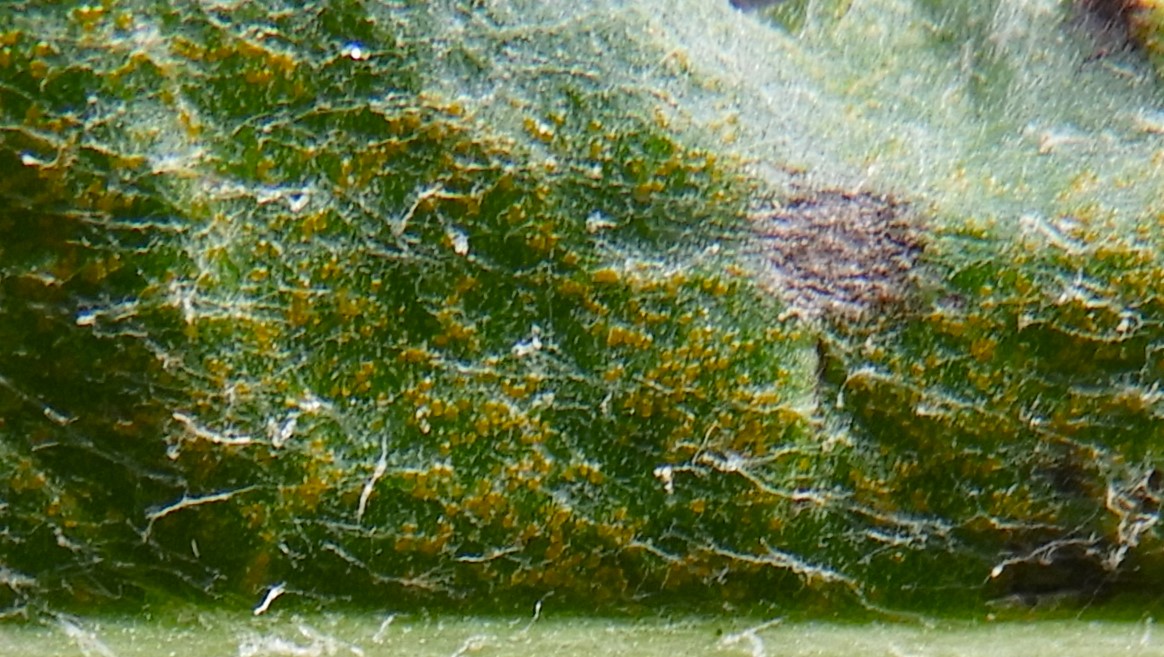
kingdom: Fungi
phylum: Basidiomycota
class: Pucciniomycetes
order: Pucciniales
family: Pucciniaceae
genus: Puccinia
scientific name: Puccinia suaveolens
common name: tidsel-tvecellerust
